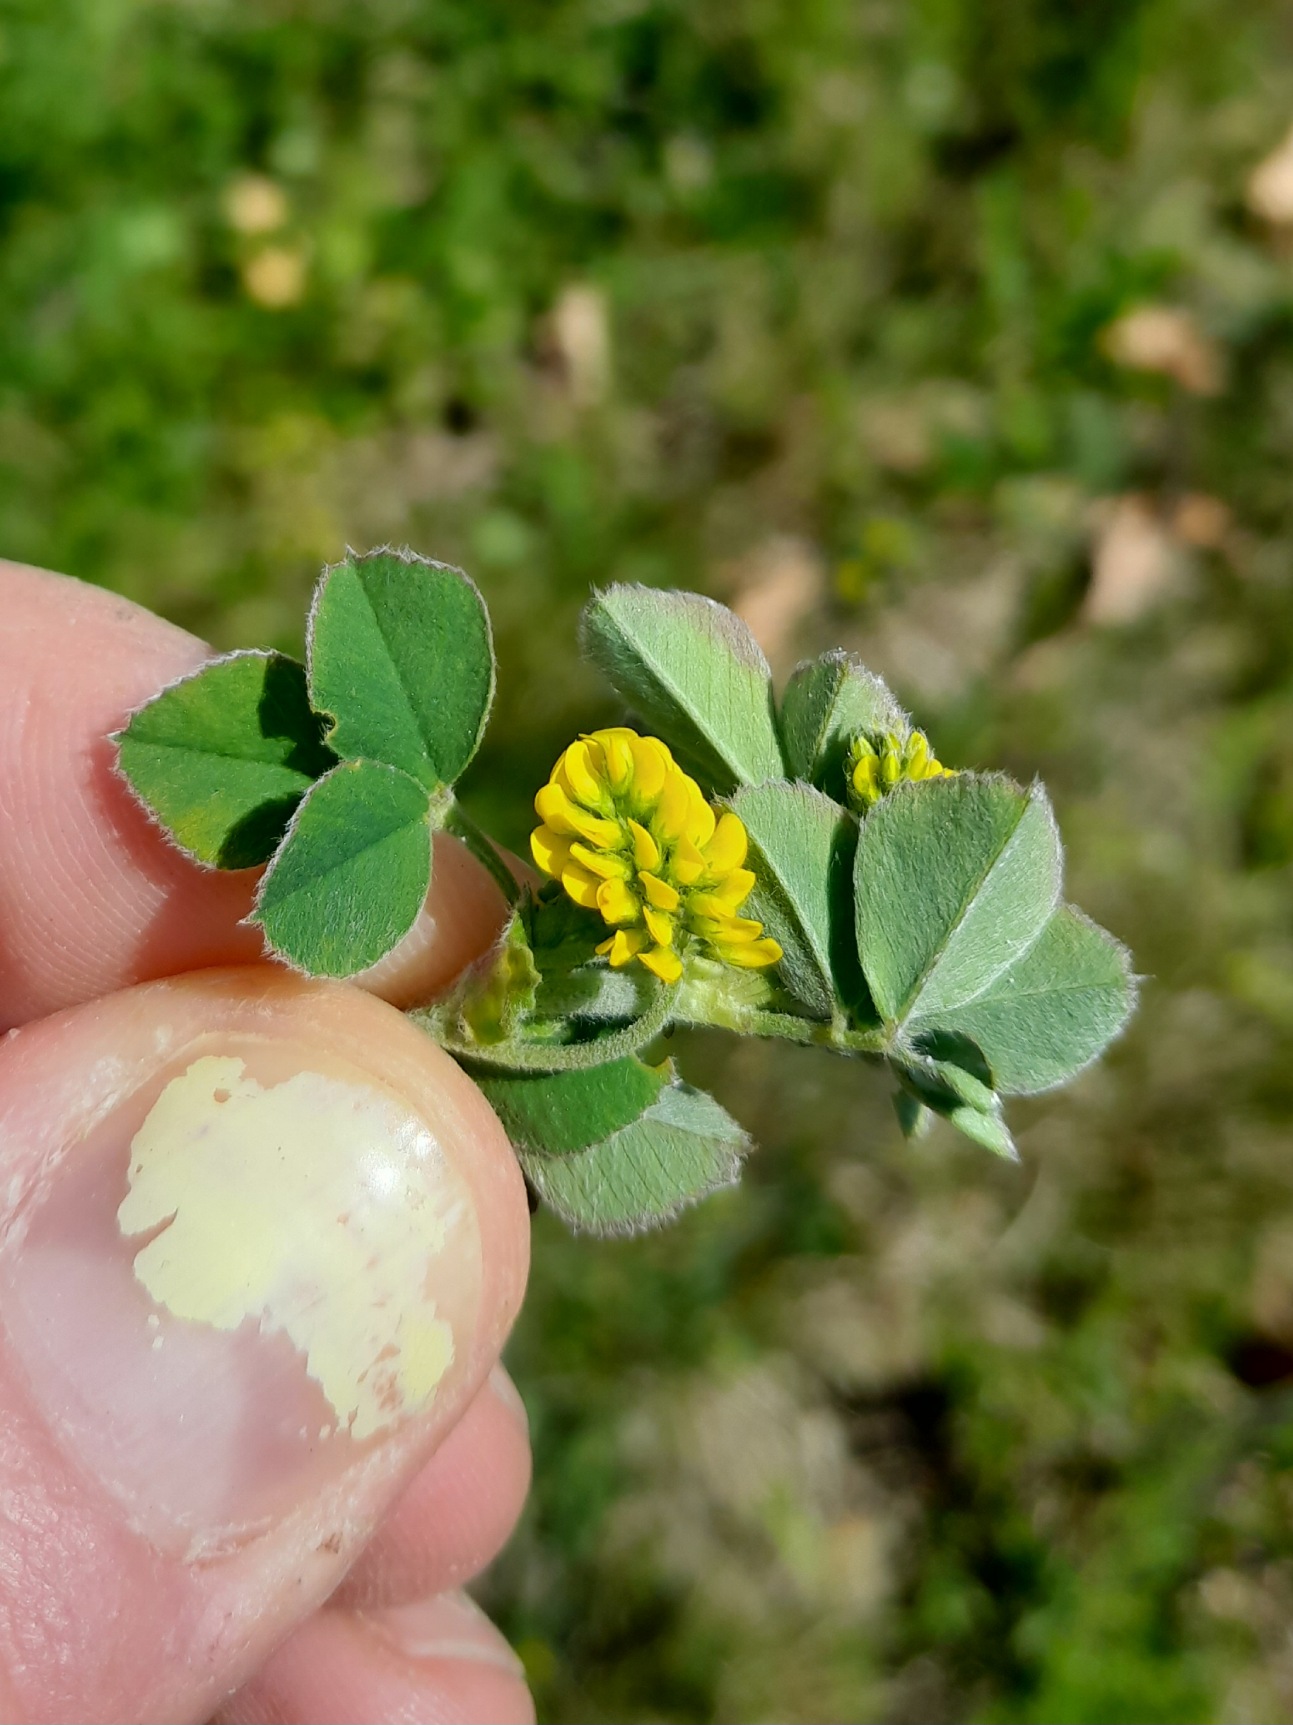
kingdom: Plantae
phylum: Tracheophyta
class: Magnoliopsida
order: Fabales
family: Fabaceae
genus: Medicago
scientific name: Medicago lupulina
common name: Humle-sneglebælg
